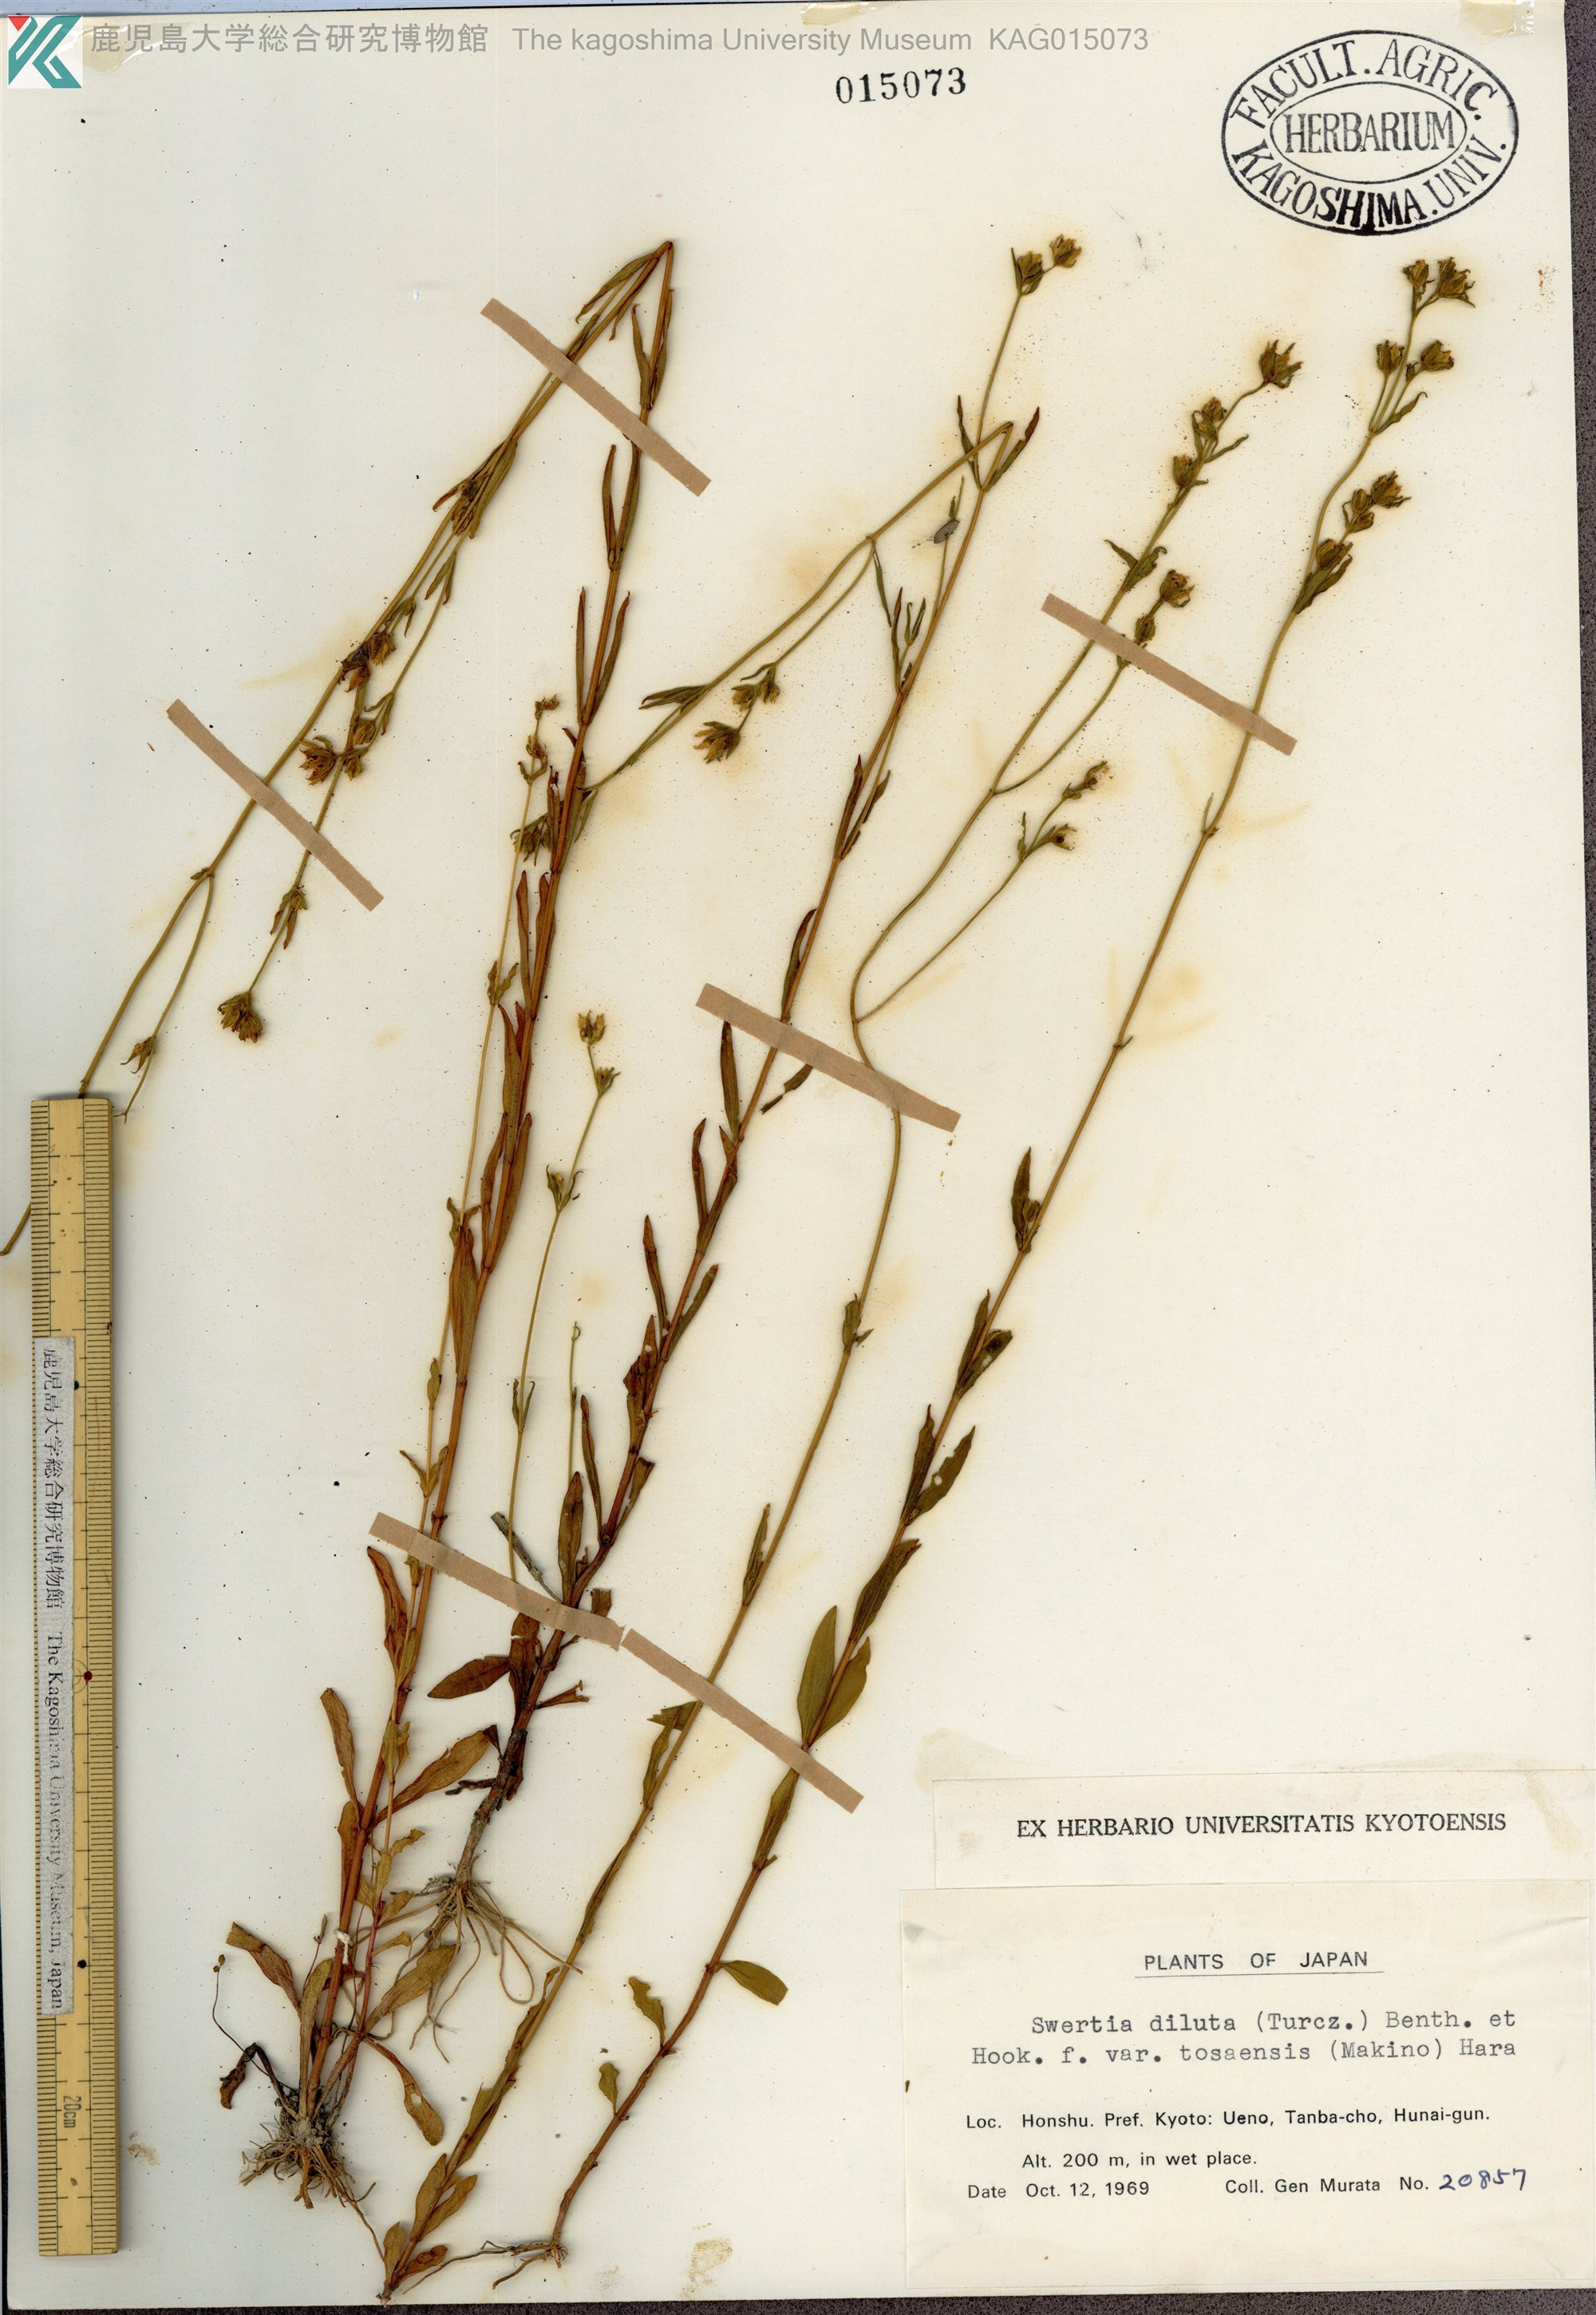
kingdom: Plantae
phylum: Tracheophyta
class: Magnoliopsida
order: Gentianales
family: Gentianaceae
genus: Swertia
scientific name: Swertia diluta
